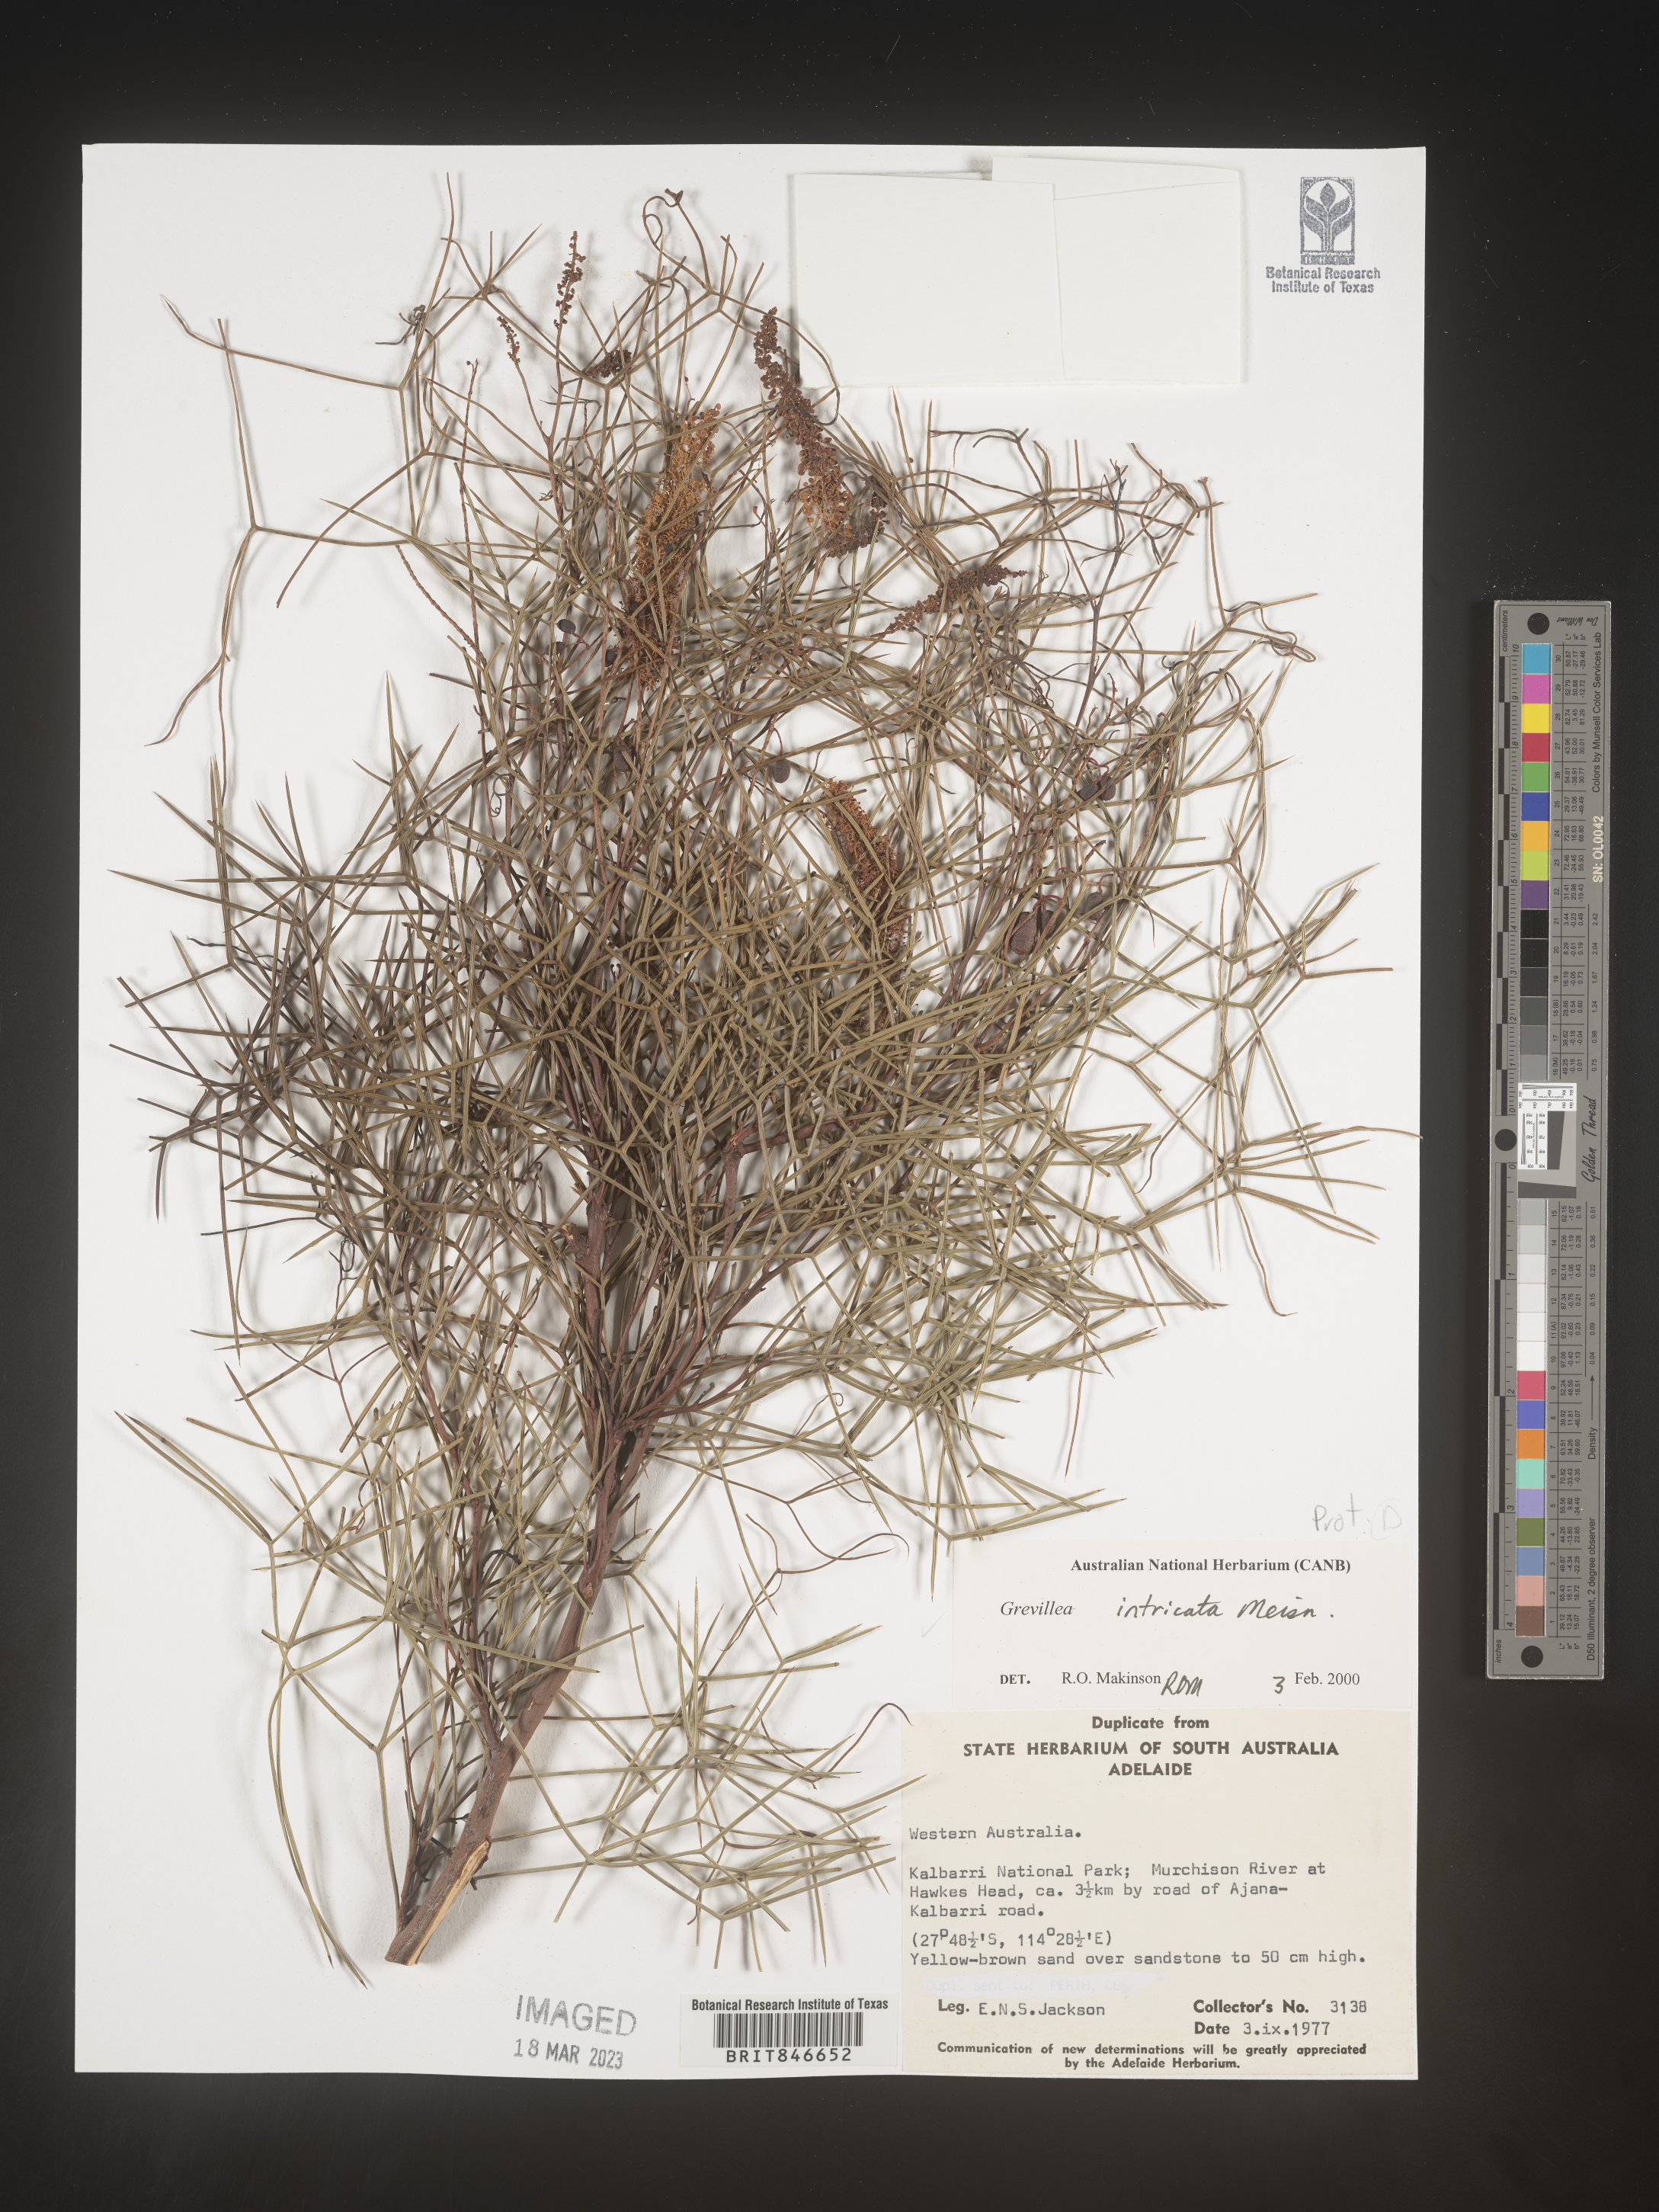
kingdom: Plantae
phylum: Tracheophyta
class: Magnoliopsida
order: Proteales
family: Proteaceae
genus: Grevillea
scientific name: Grevillea
